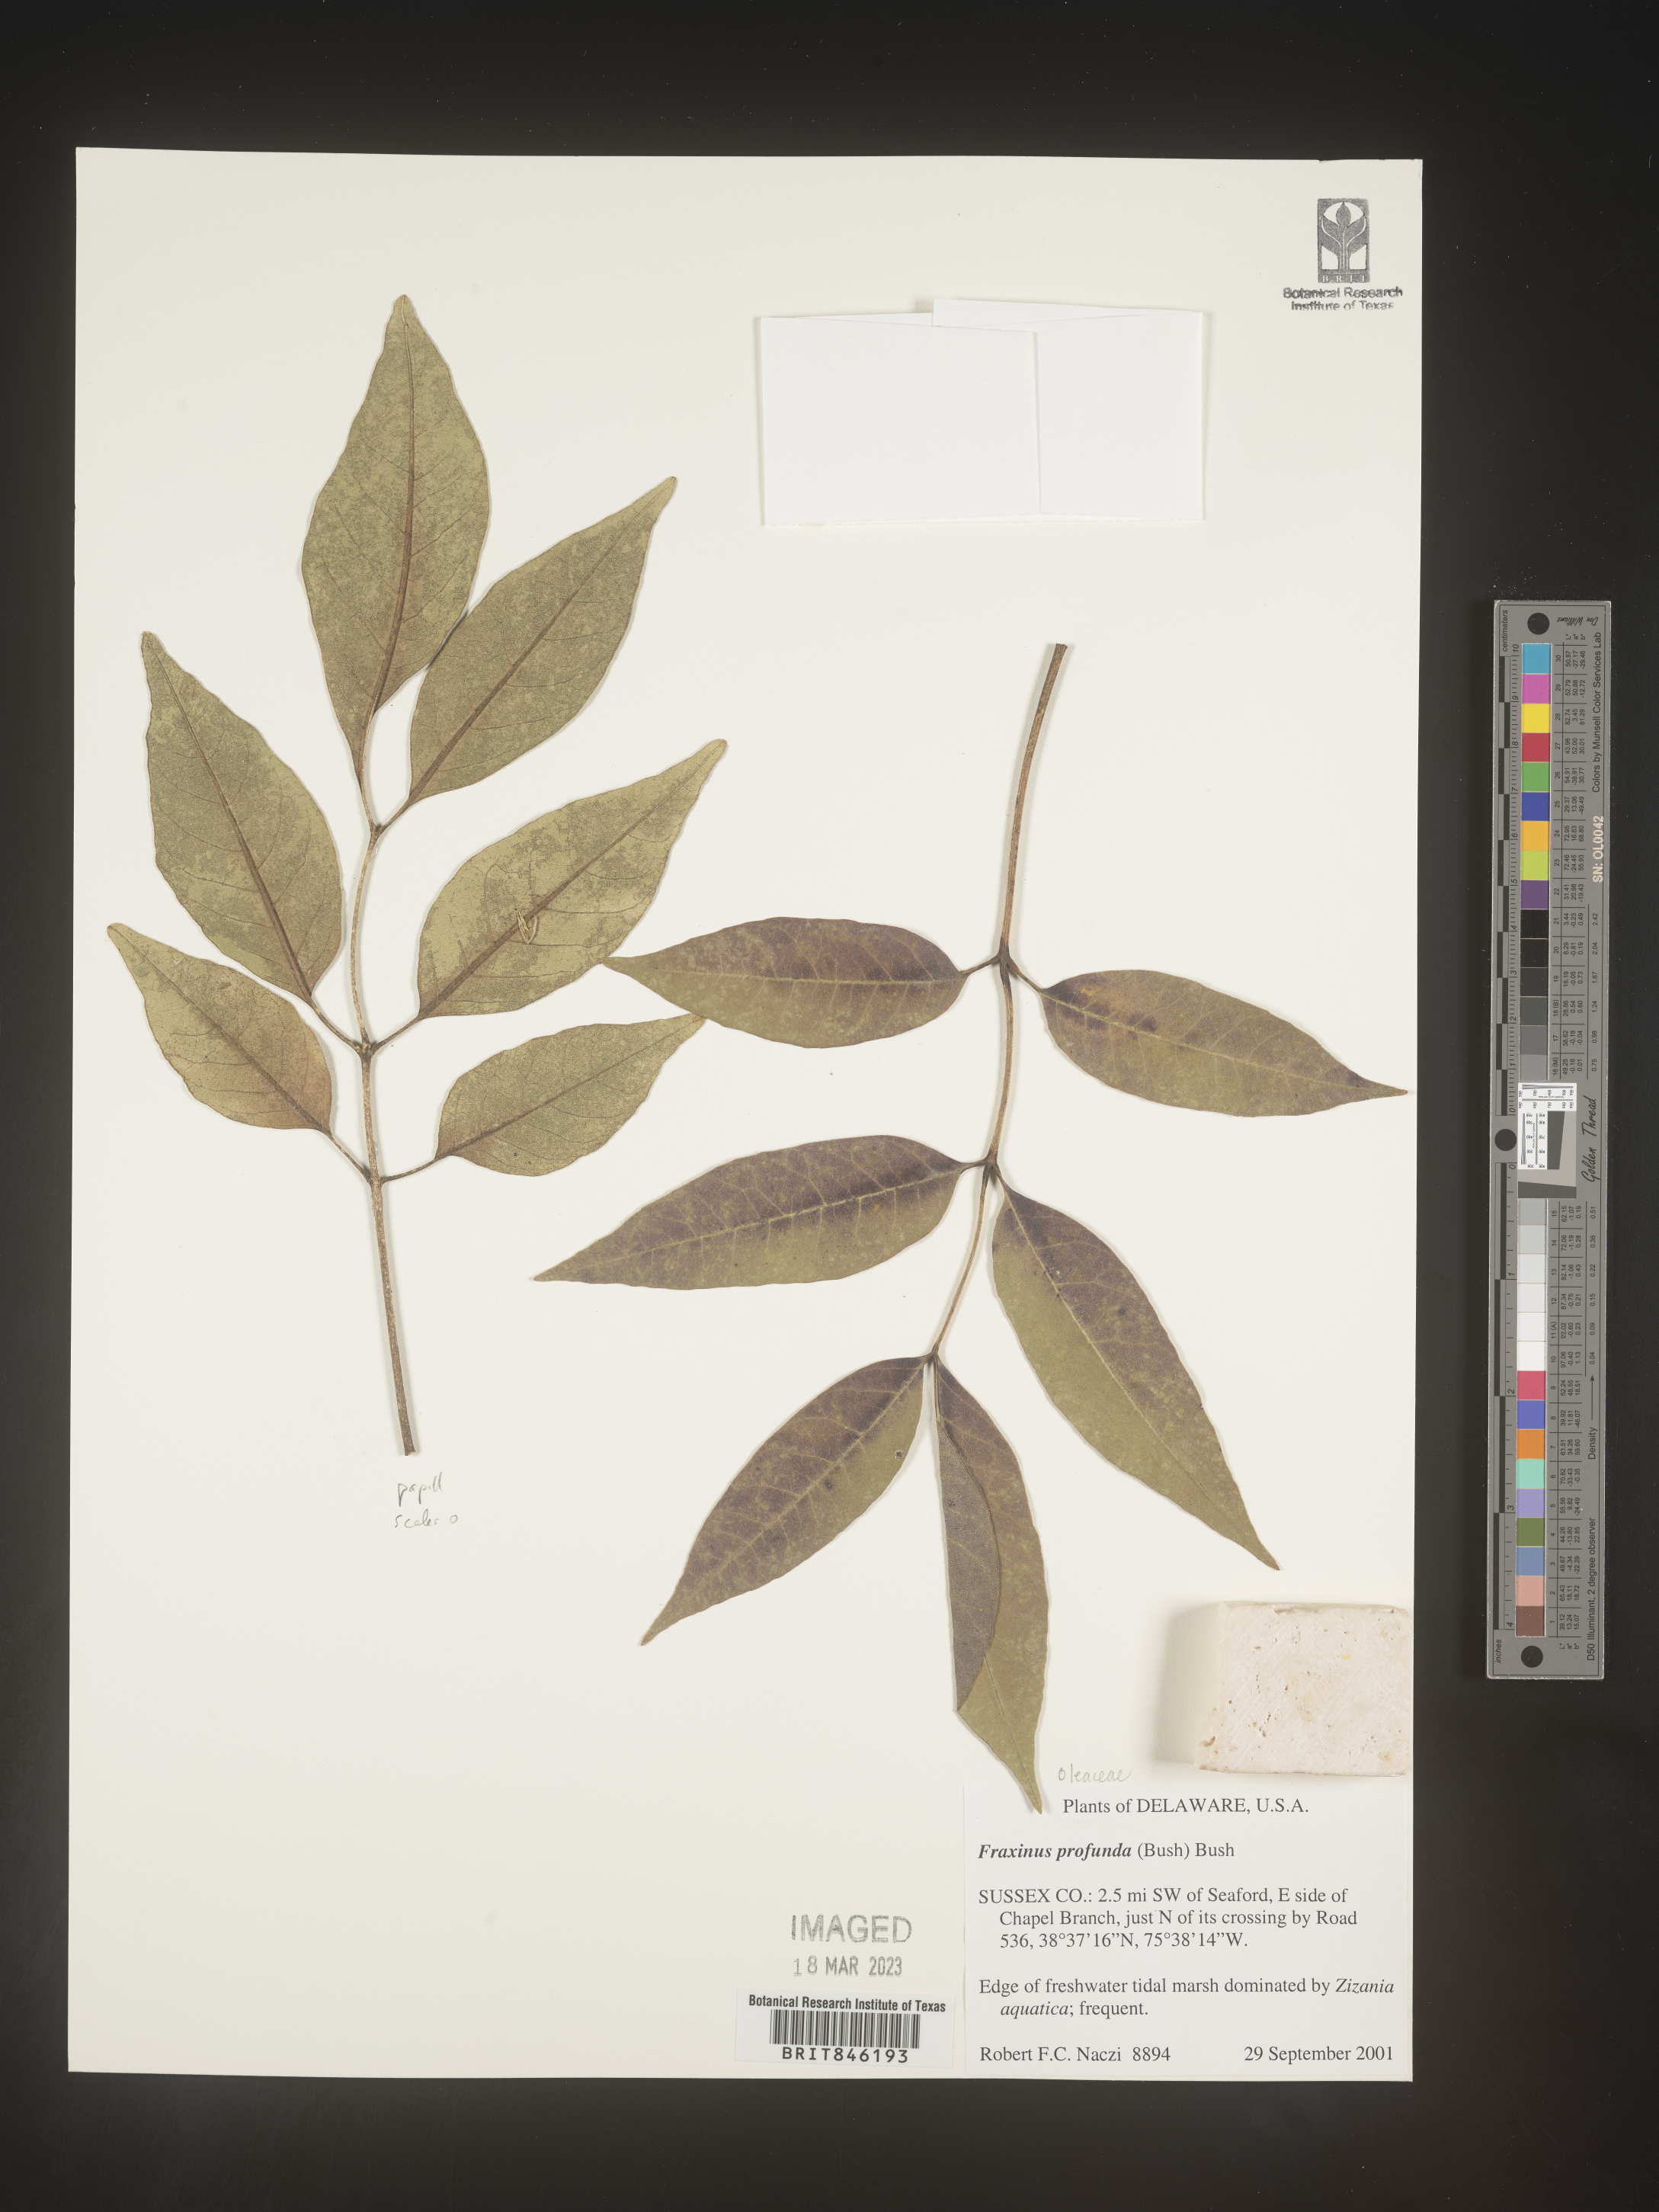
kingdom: Plantae
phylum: Tracheophyta
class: Magnoliopsida
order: Lamiales
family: Oleaceae
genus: Fraxinus
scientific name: Fraxinus profunda
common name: Pumpkin ash
